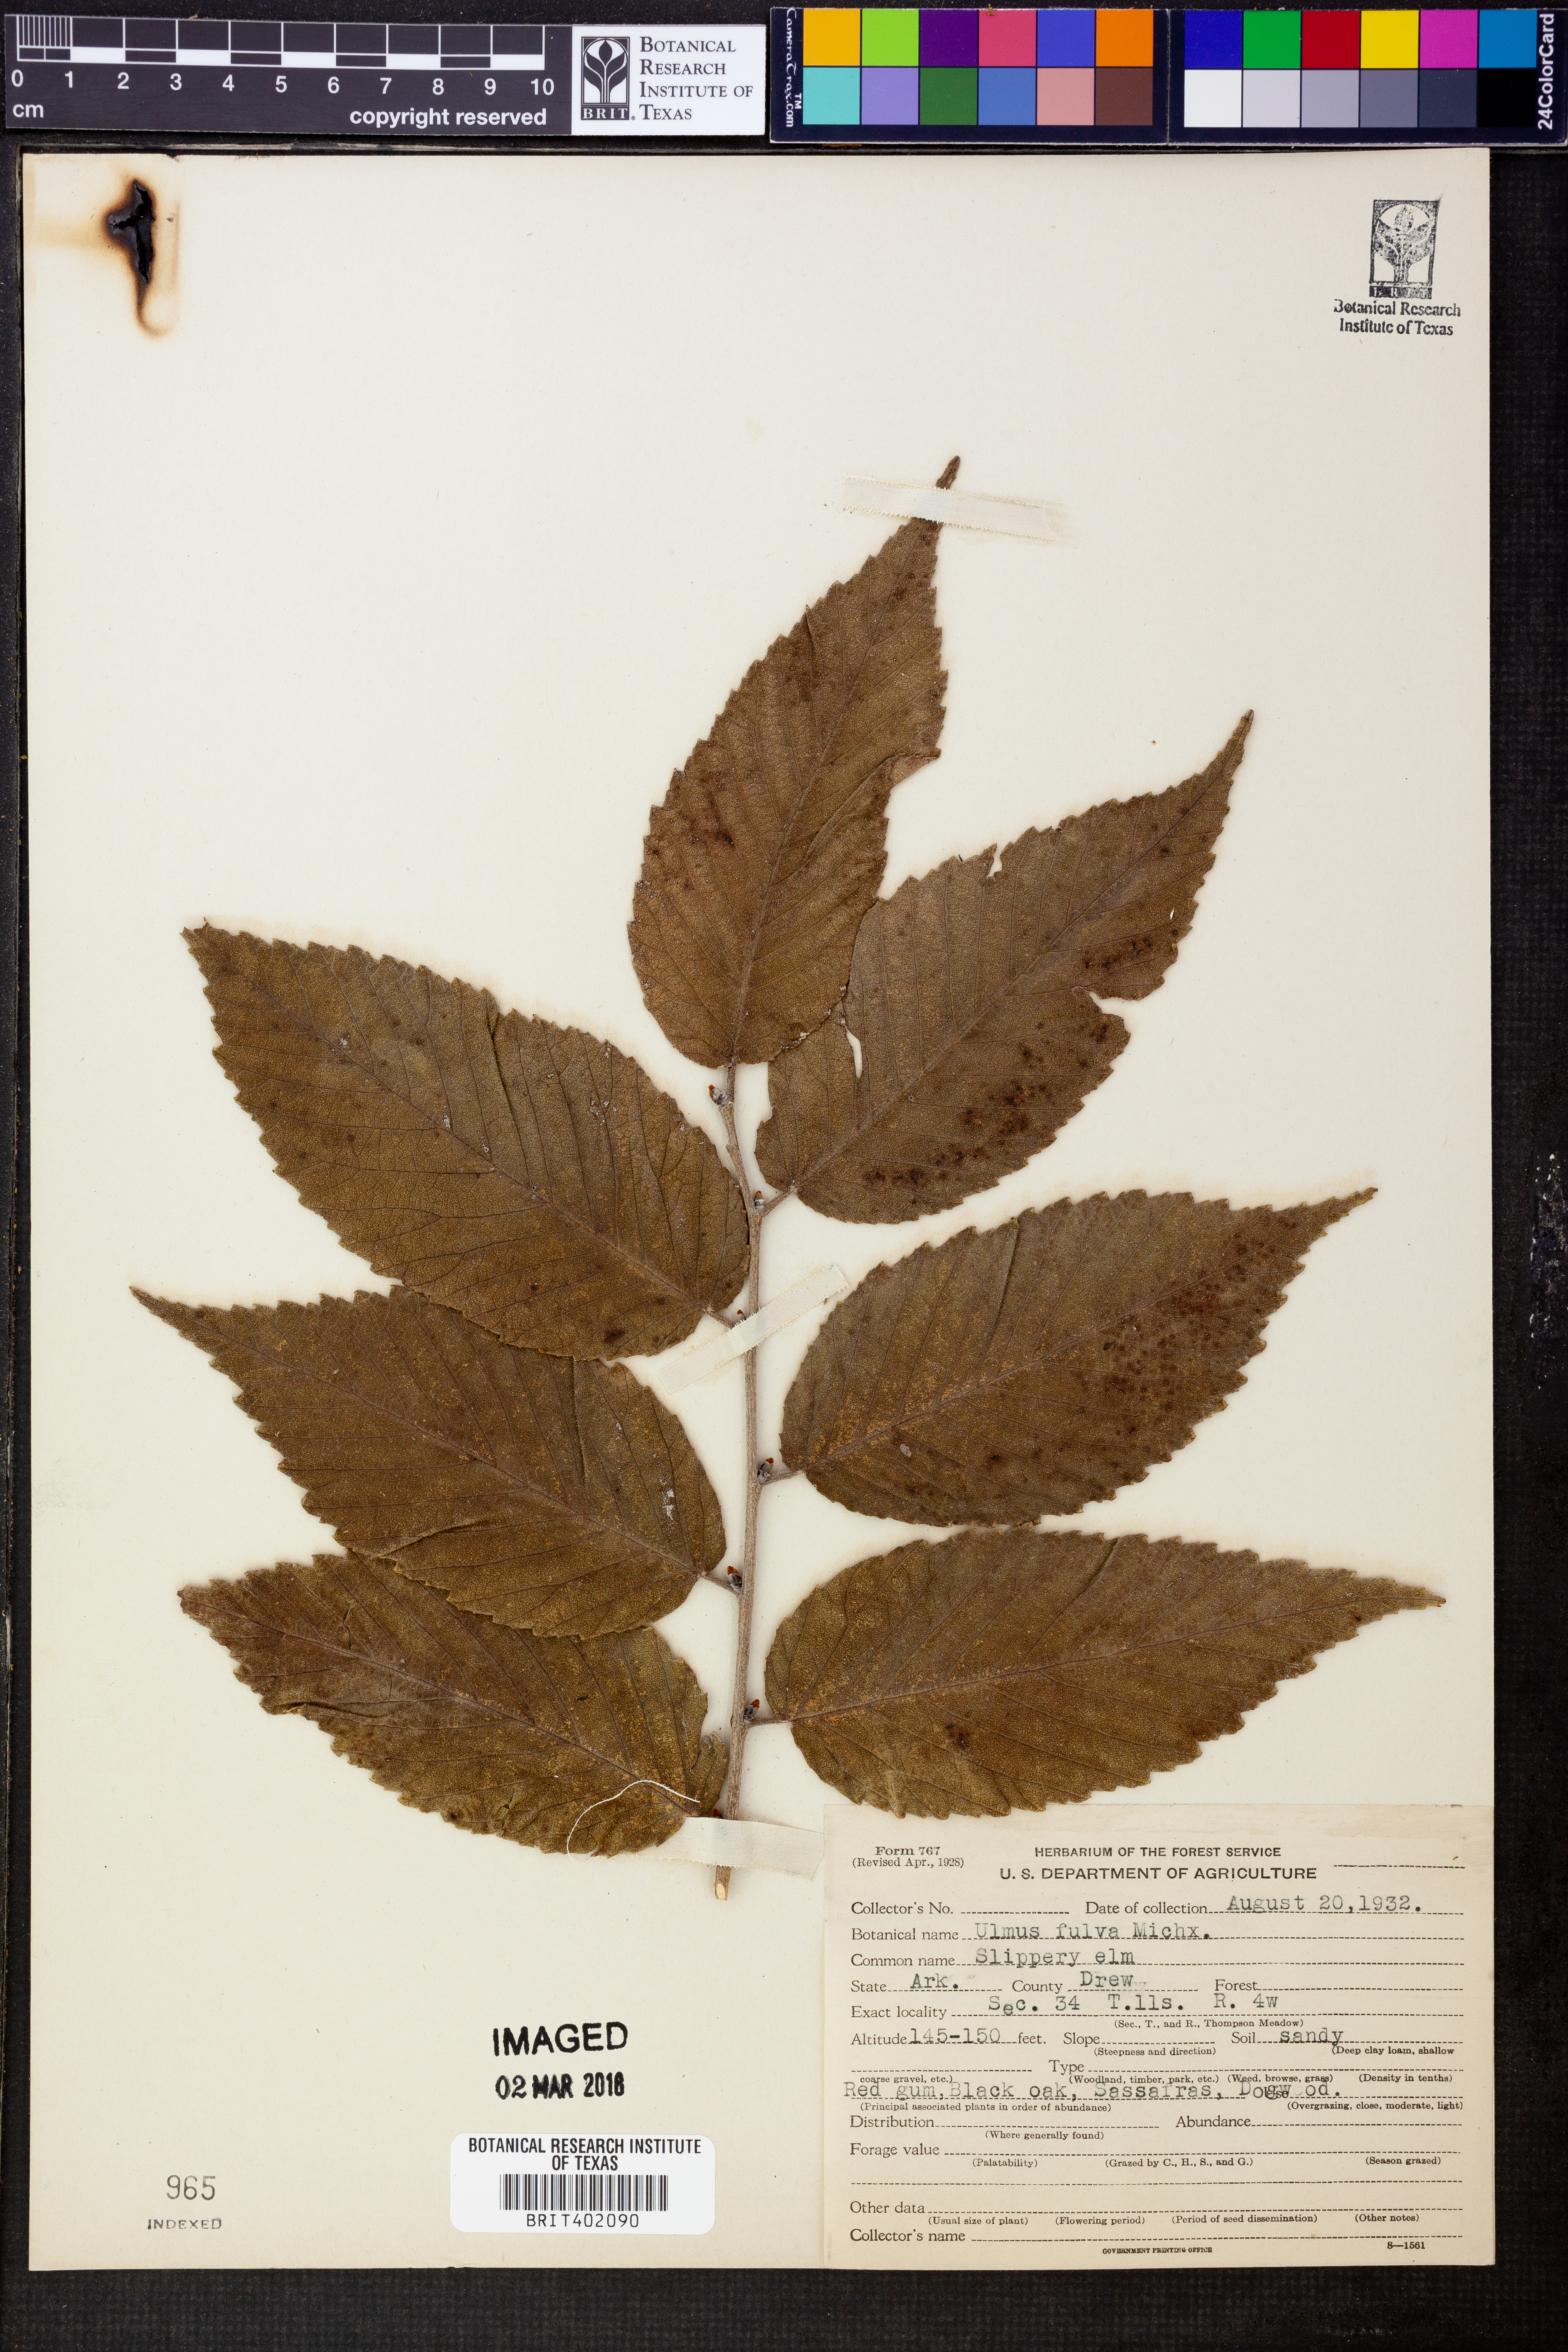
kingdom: Plantae
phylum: Tracheophyta
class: Magnoliopsida
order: Rosales
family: Ulmaceae
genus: Ulmus
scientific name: Ulmus rubra
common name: Slippery elm
